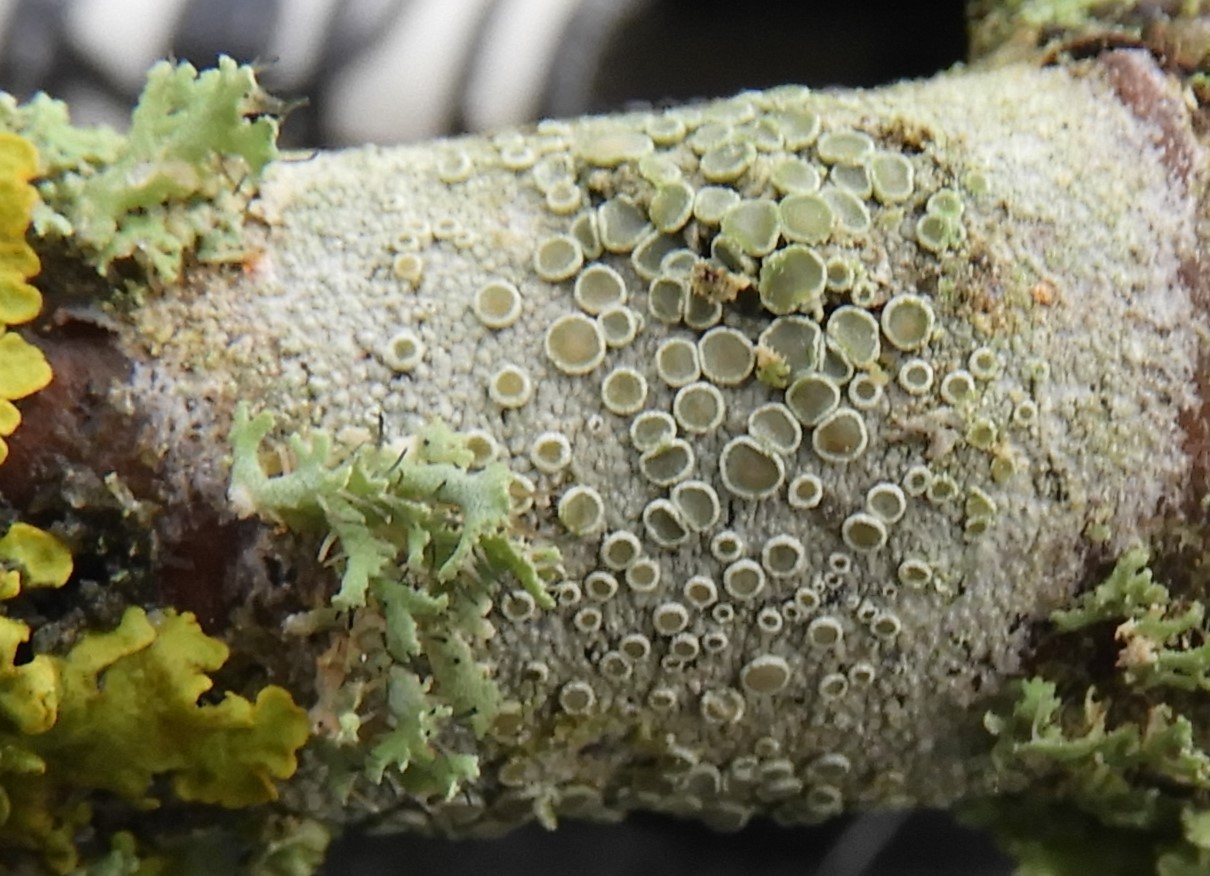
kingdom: Fungi
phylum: Ascomycota
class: Lecanoromycetes
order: Lecanorales
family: Lecanoraceae
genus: Lecanora
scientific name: Lecanora chlarotera
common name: brun kantskivelav
